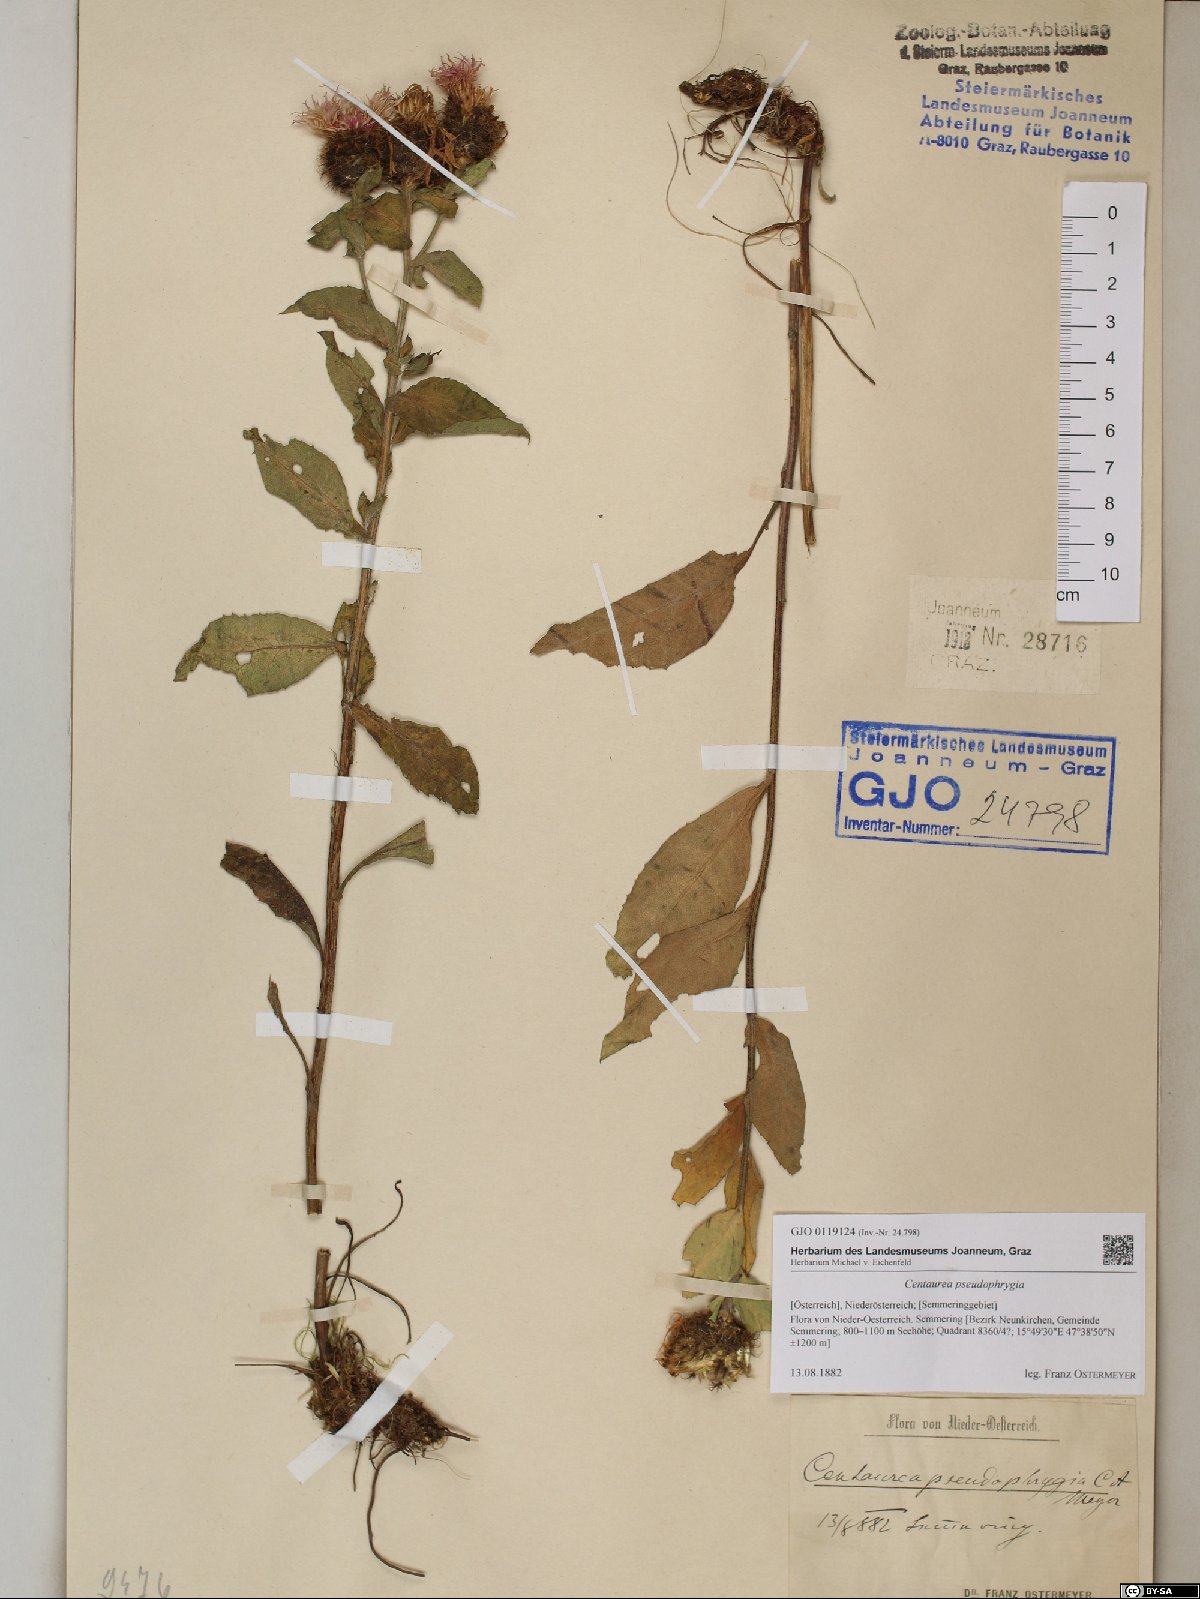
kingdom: Plantae
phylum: Tracheophyta
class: Magnoliopsida
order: Asterales
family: Asteraceae
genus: Centaurea
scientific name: Centaurea pseudophrygia
